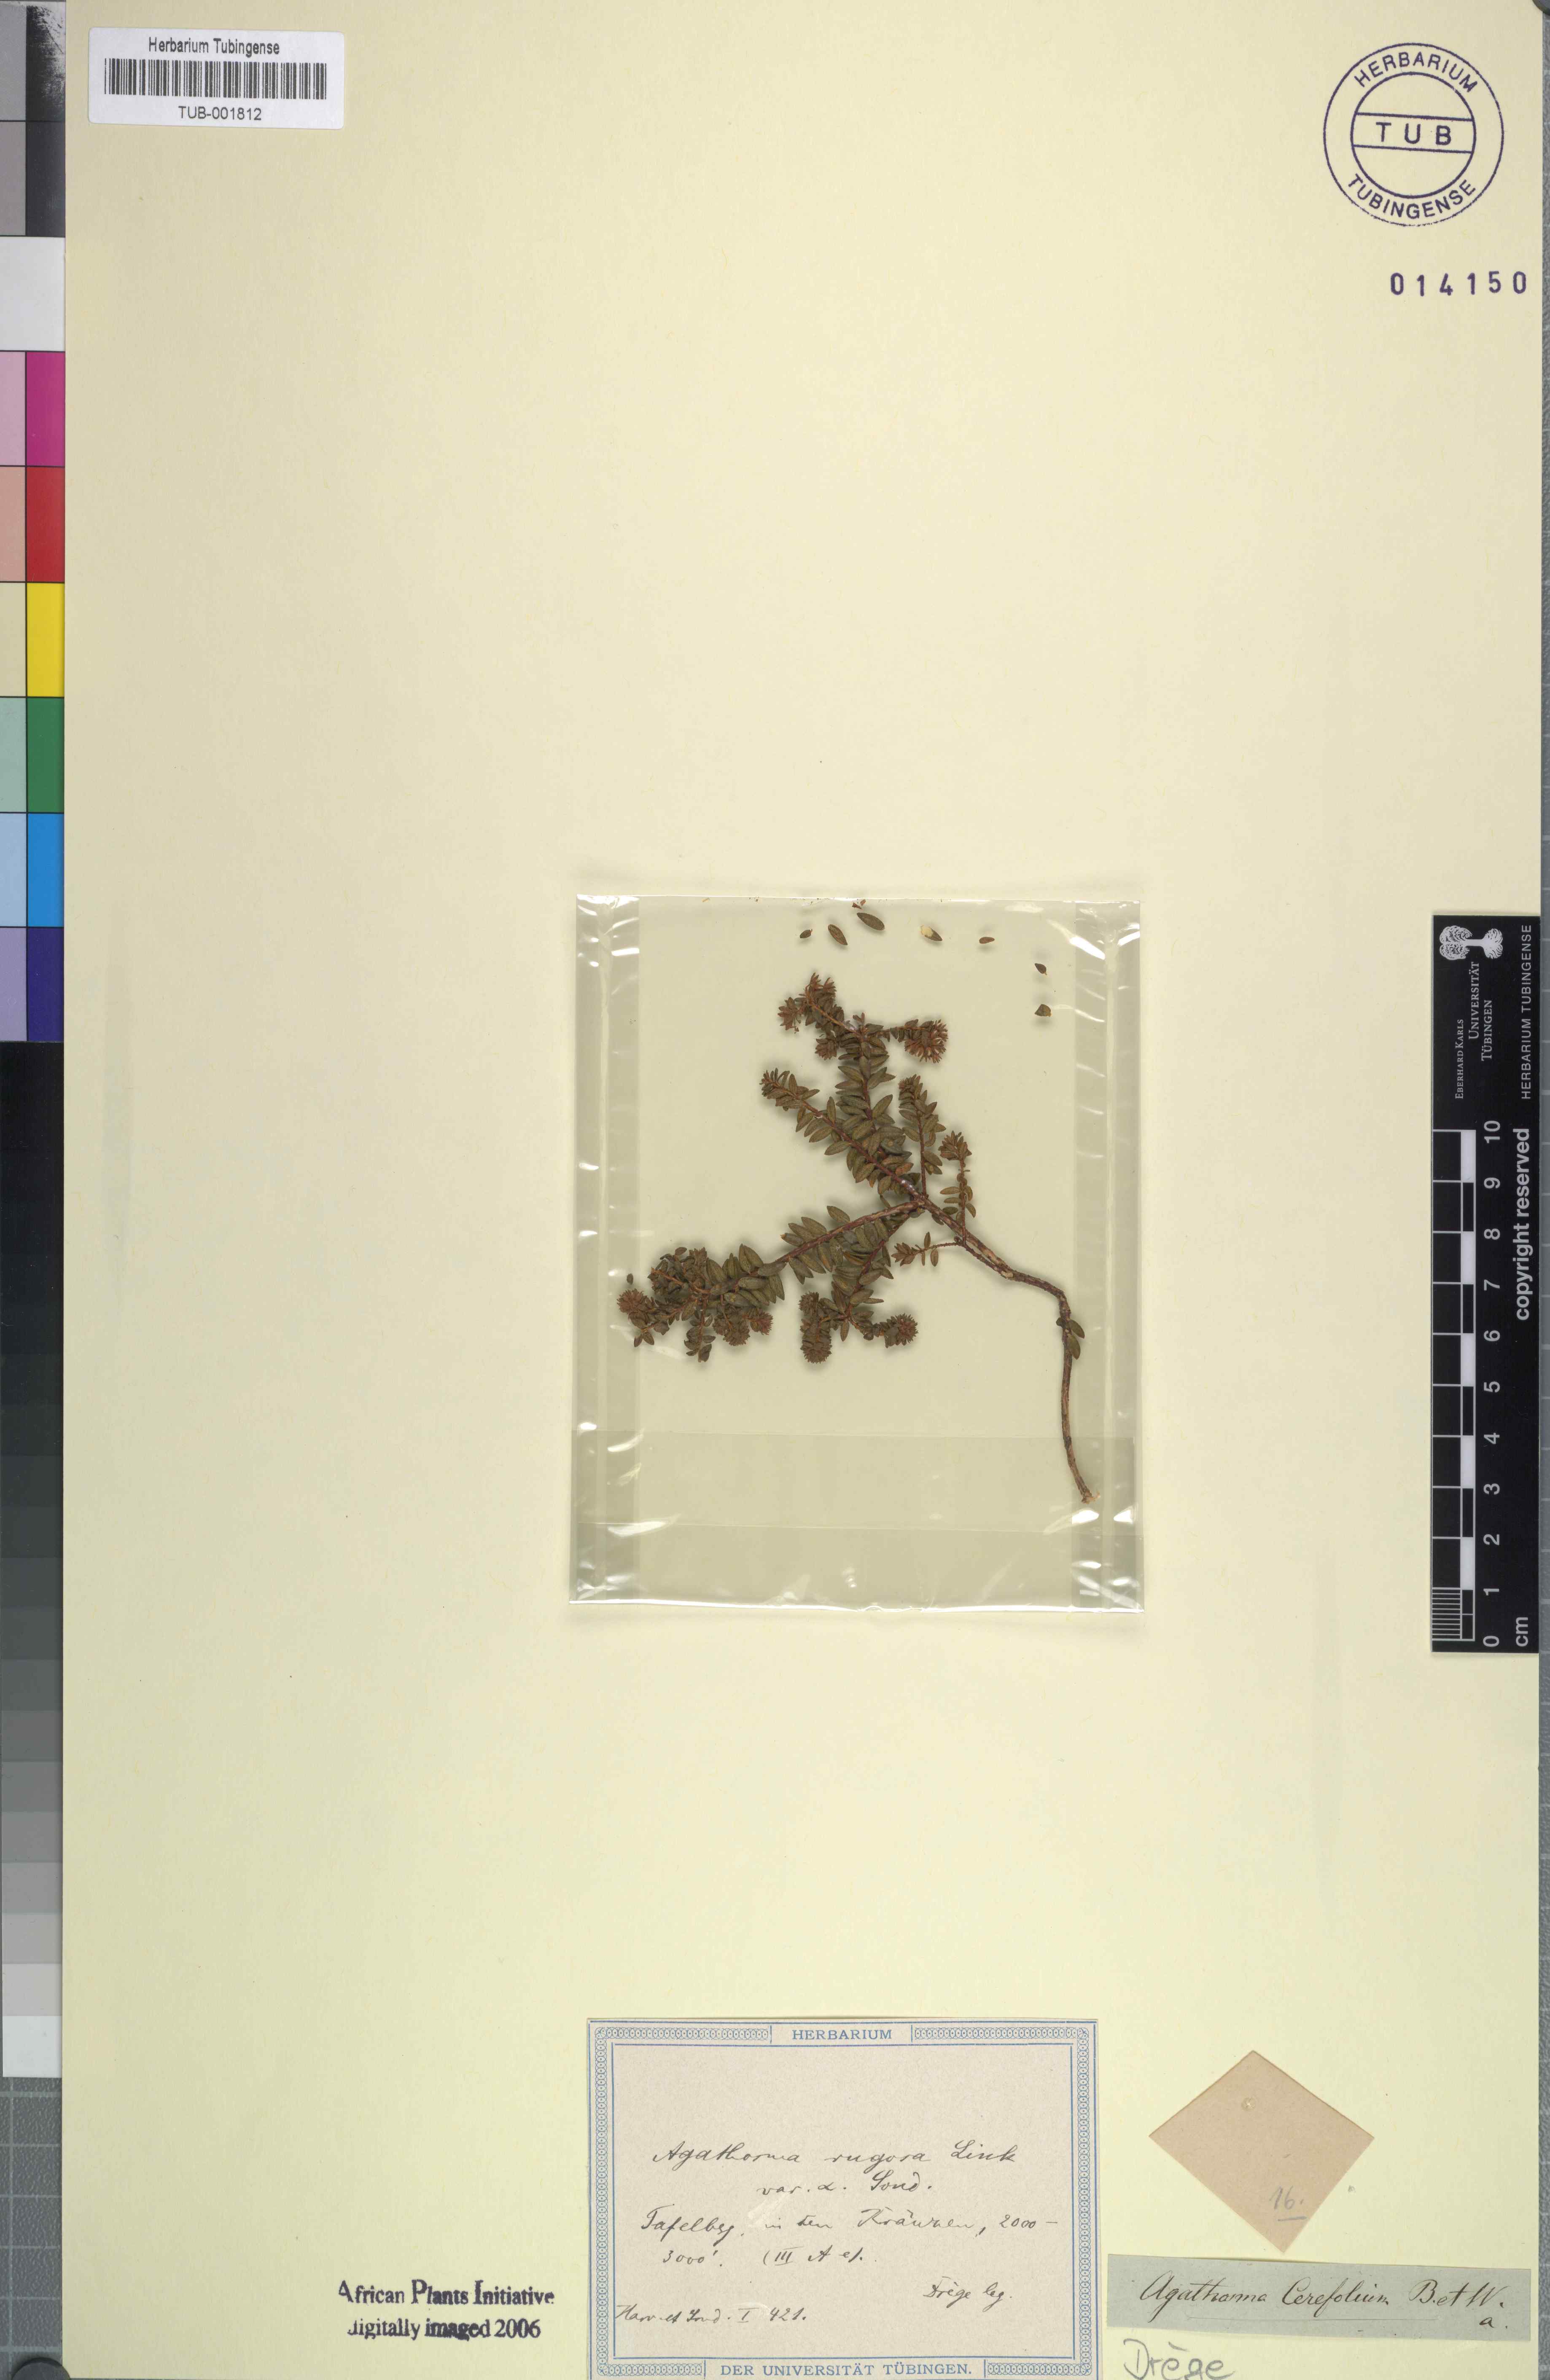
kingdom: Plantae
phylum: Tracheophyta
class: Magnoliopsida
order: Sapindales
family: Rutaceae
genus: Agathosma
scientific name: Agathosma cerefolia
